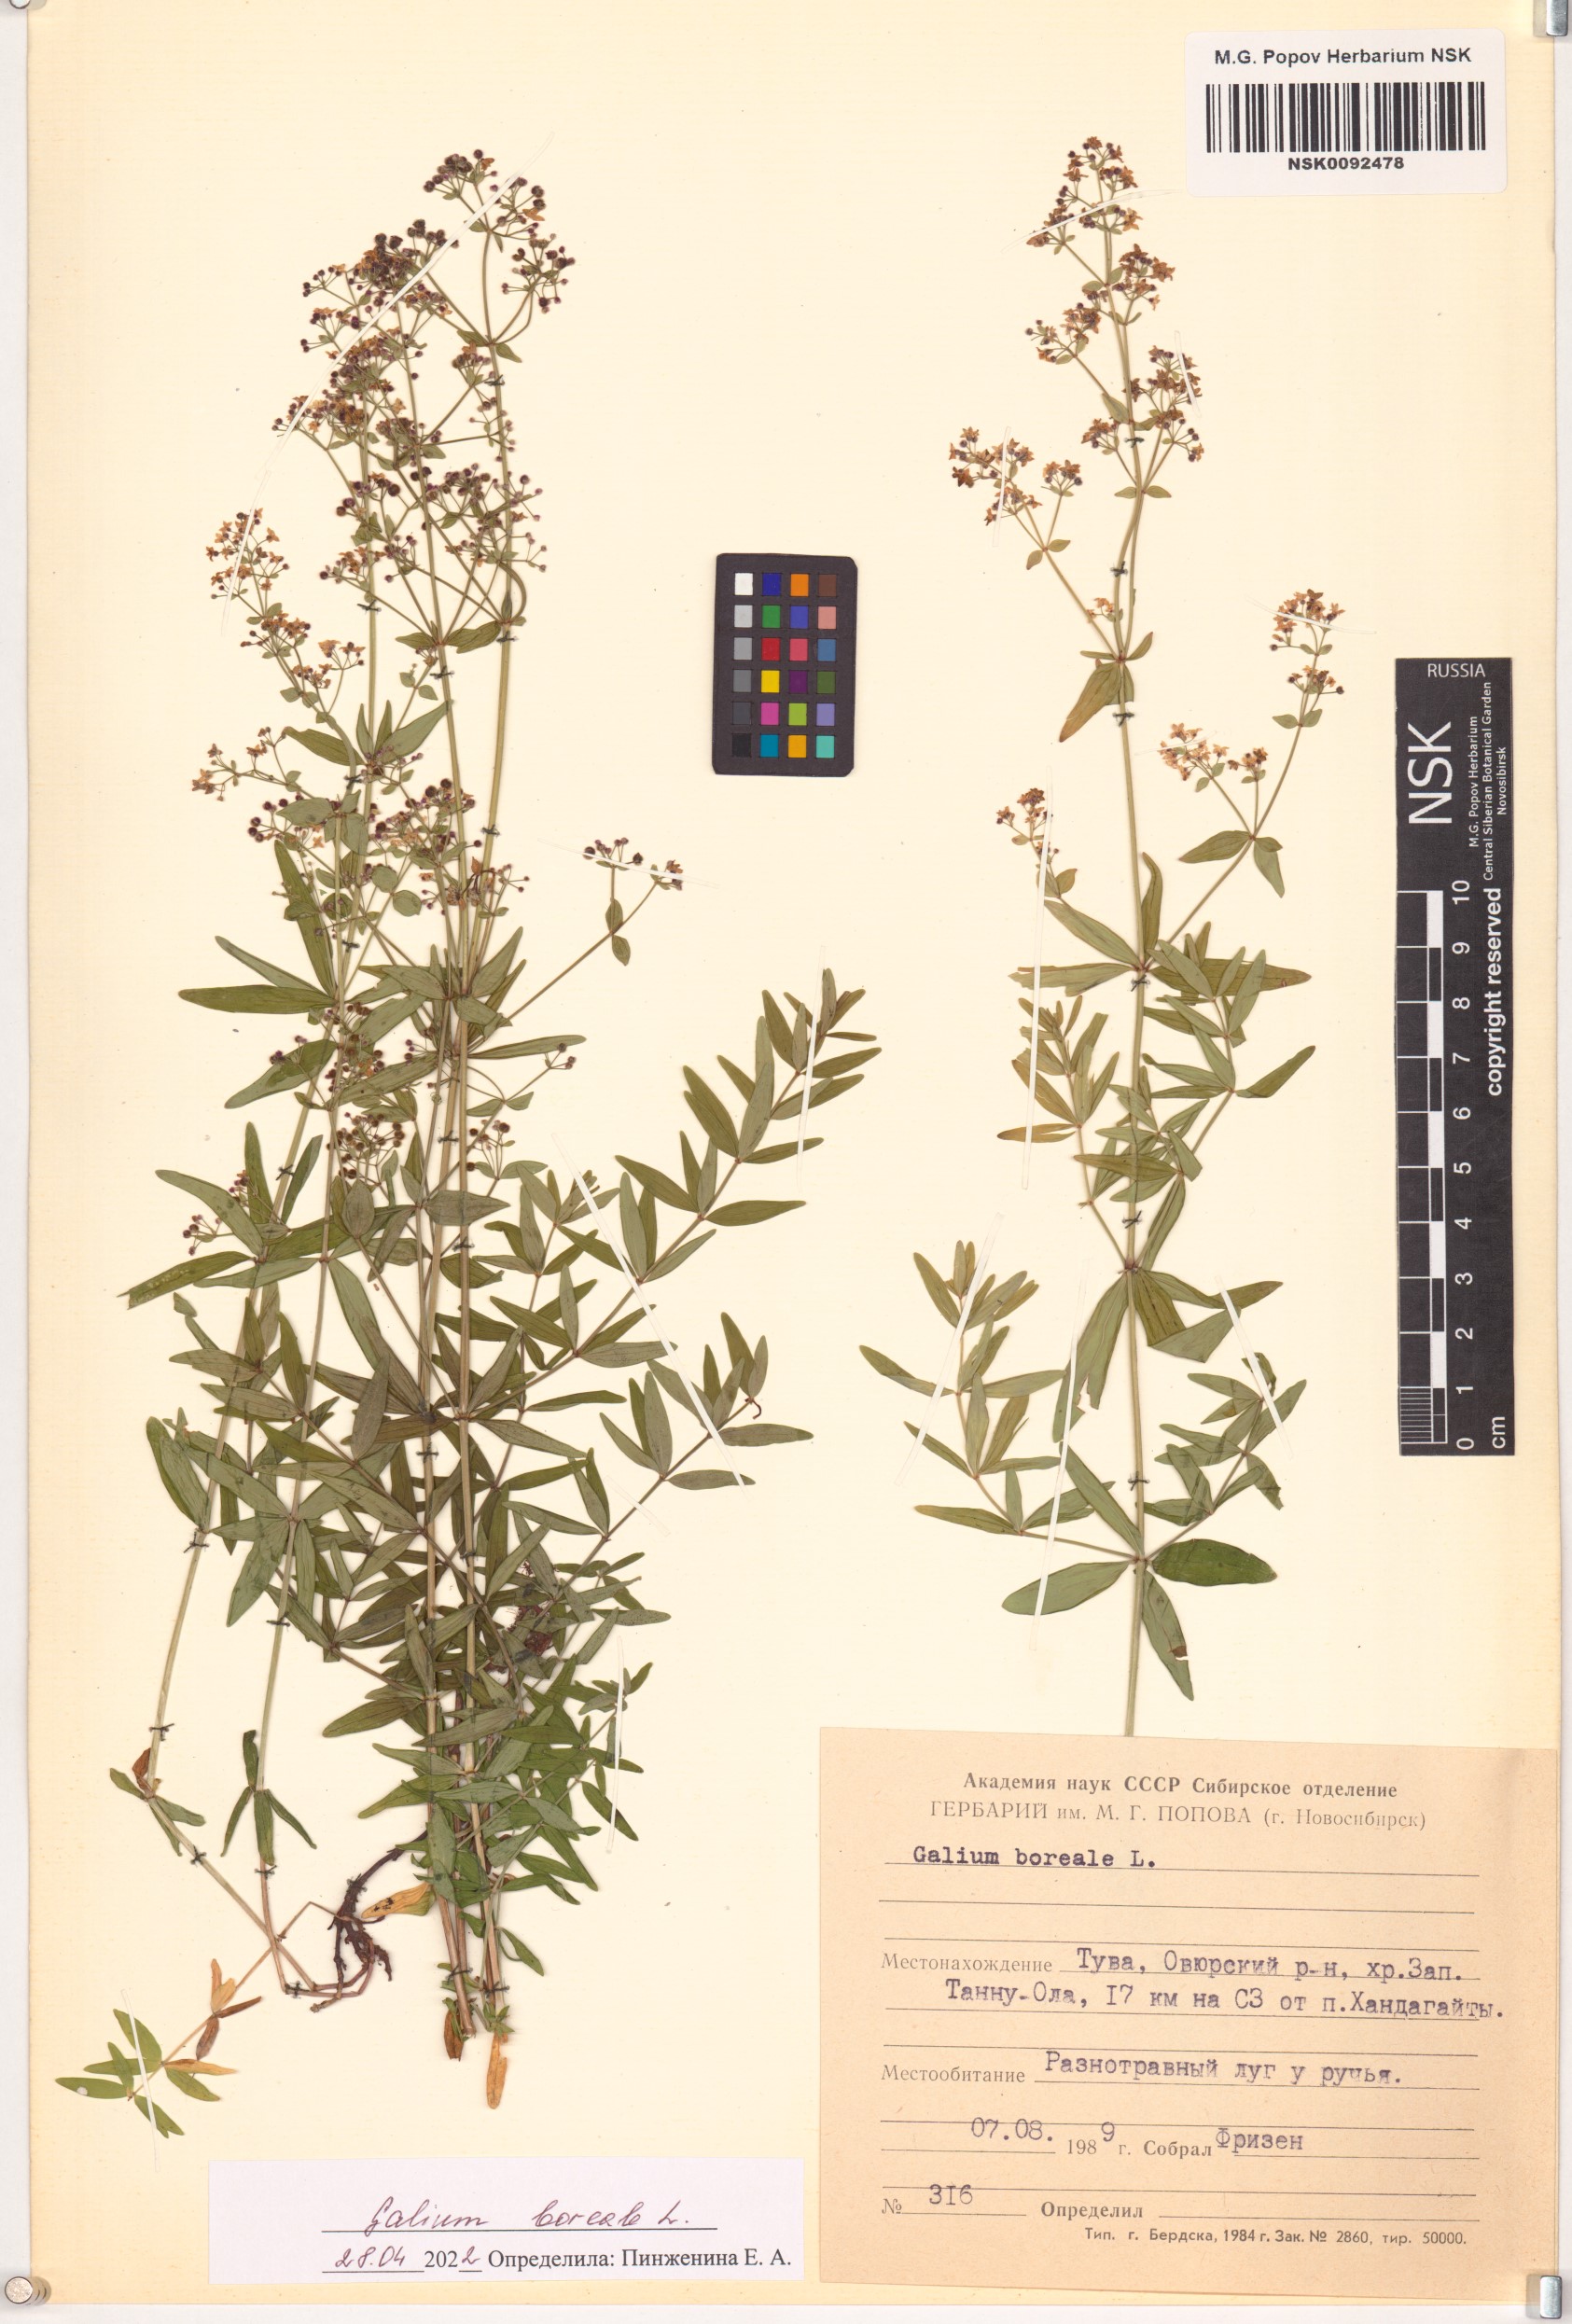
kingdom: Plantae
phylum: Tracheophyta
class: Magnoliopsida
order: Gentianales
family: Rubiaceae
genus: Galium
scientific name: Galium boreale
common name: Northern bedstraw
